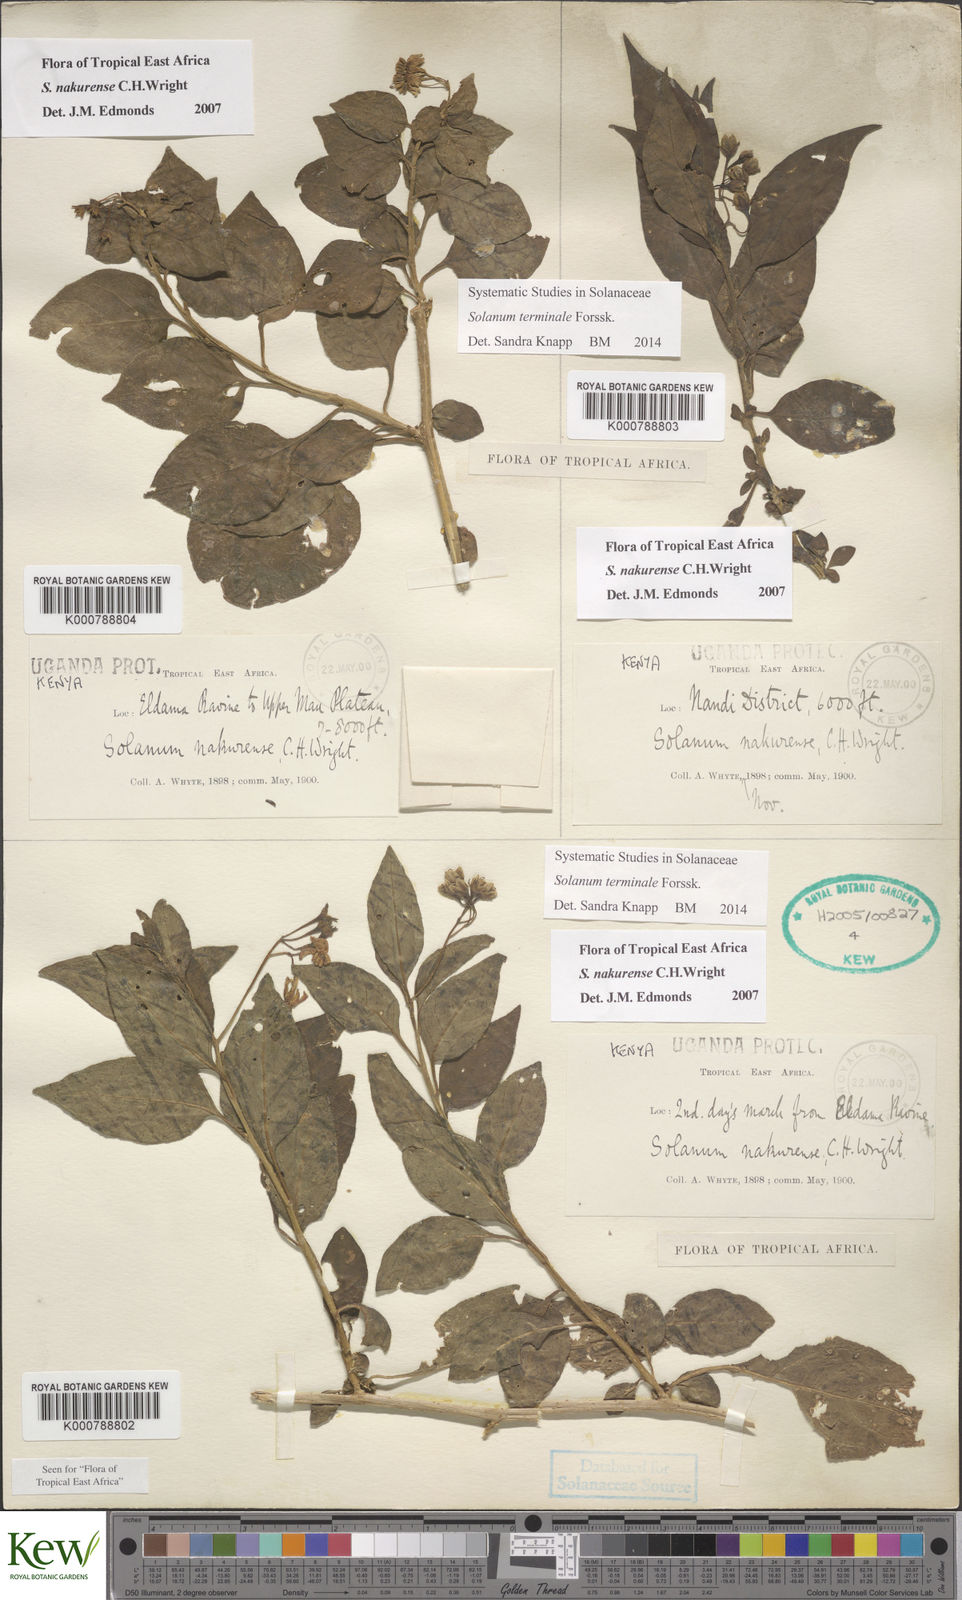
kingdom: Plantae
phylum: Tracheophyta
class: Magnoliopsida
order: Solanales
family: Solanaceae
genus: Solanum
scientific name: Solanum terminale
